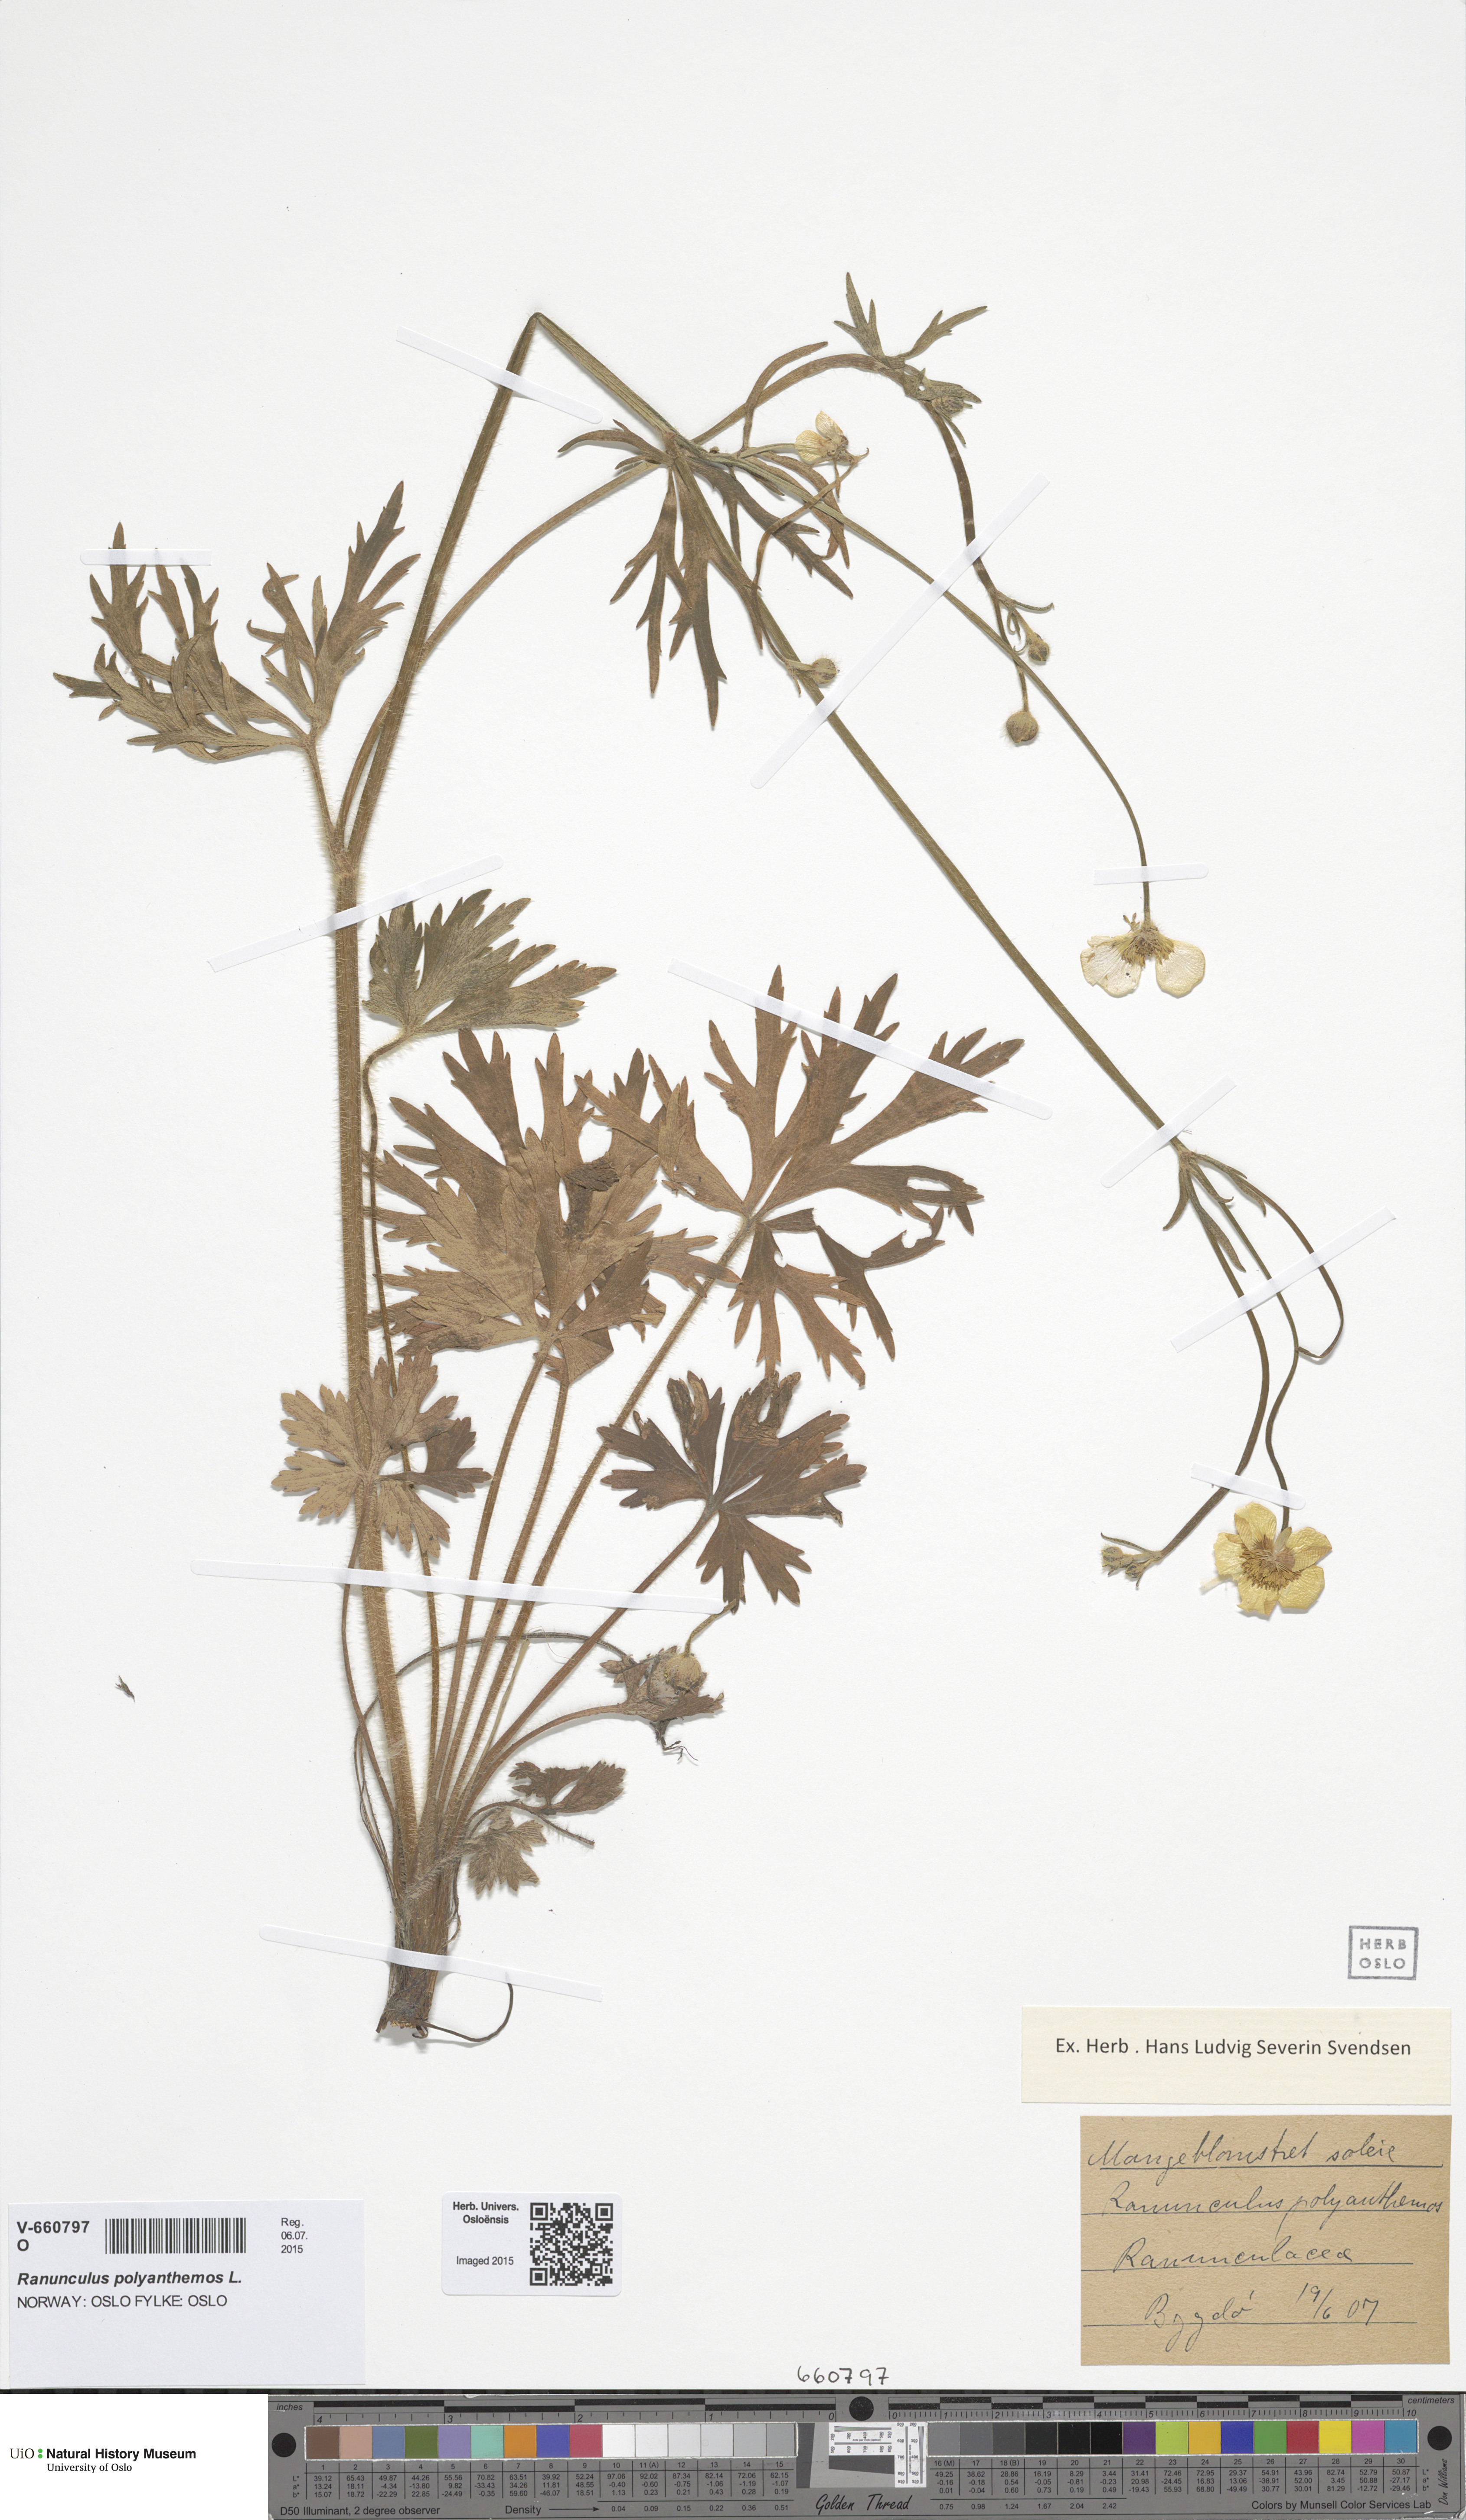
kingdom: Plantae
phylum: Tracheophyta
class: Magnoliopsida
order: Ranunculales
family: Ranunculaceae
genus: Ranunculus
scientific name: Ranunculus polyanthemos
